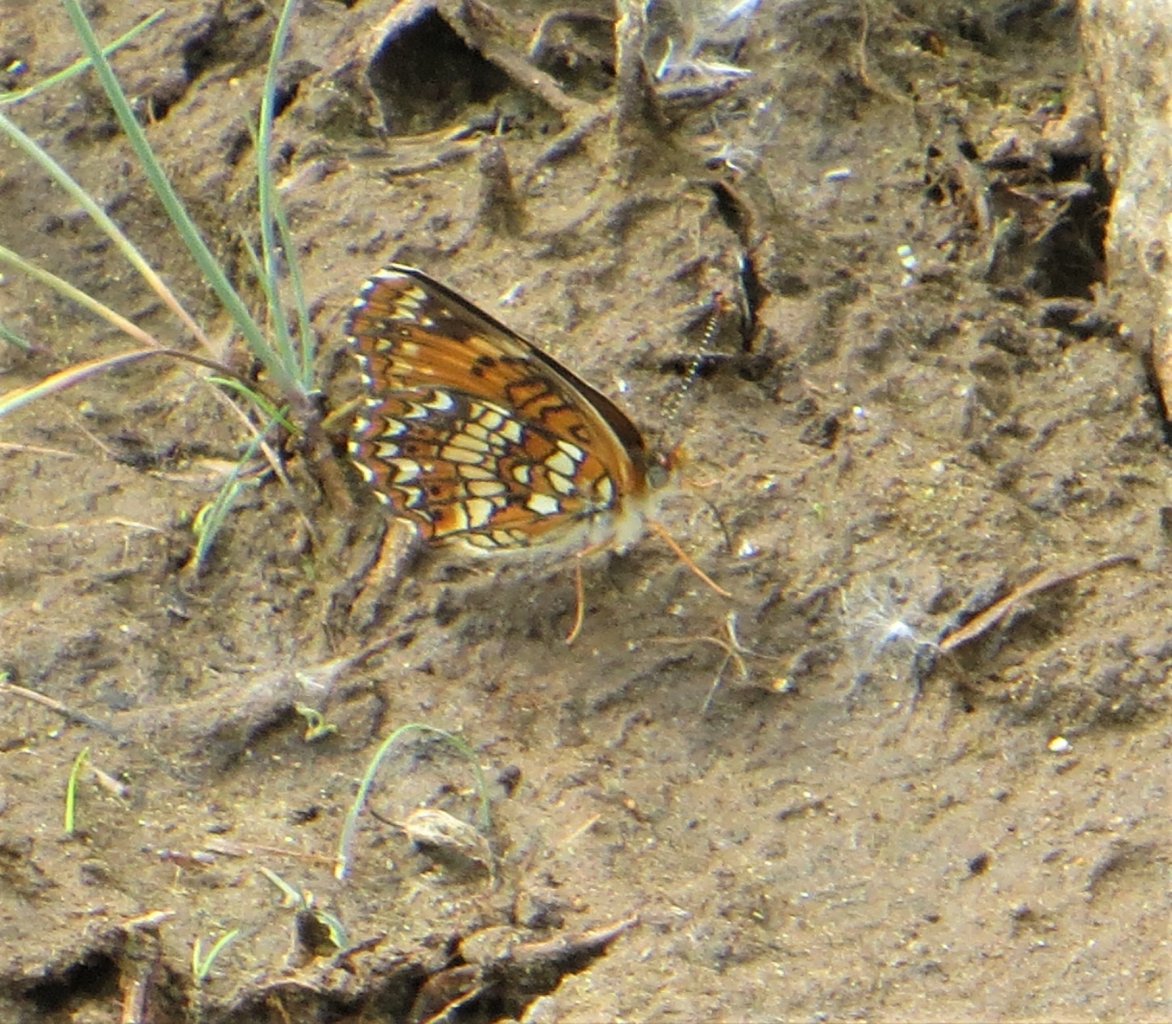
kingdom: Animalia
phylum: Arthropoda
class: Insecta
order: Lepidoptera
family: Nymphalidae
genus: Chlosyne
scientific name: Chlosyne harrisii
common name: Harris's Checkerspot
